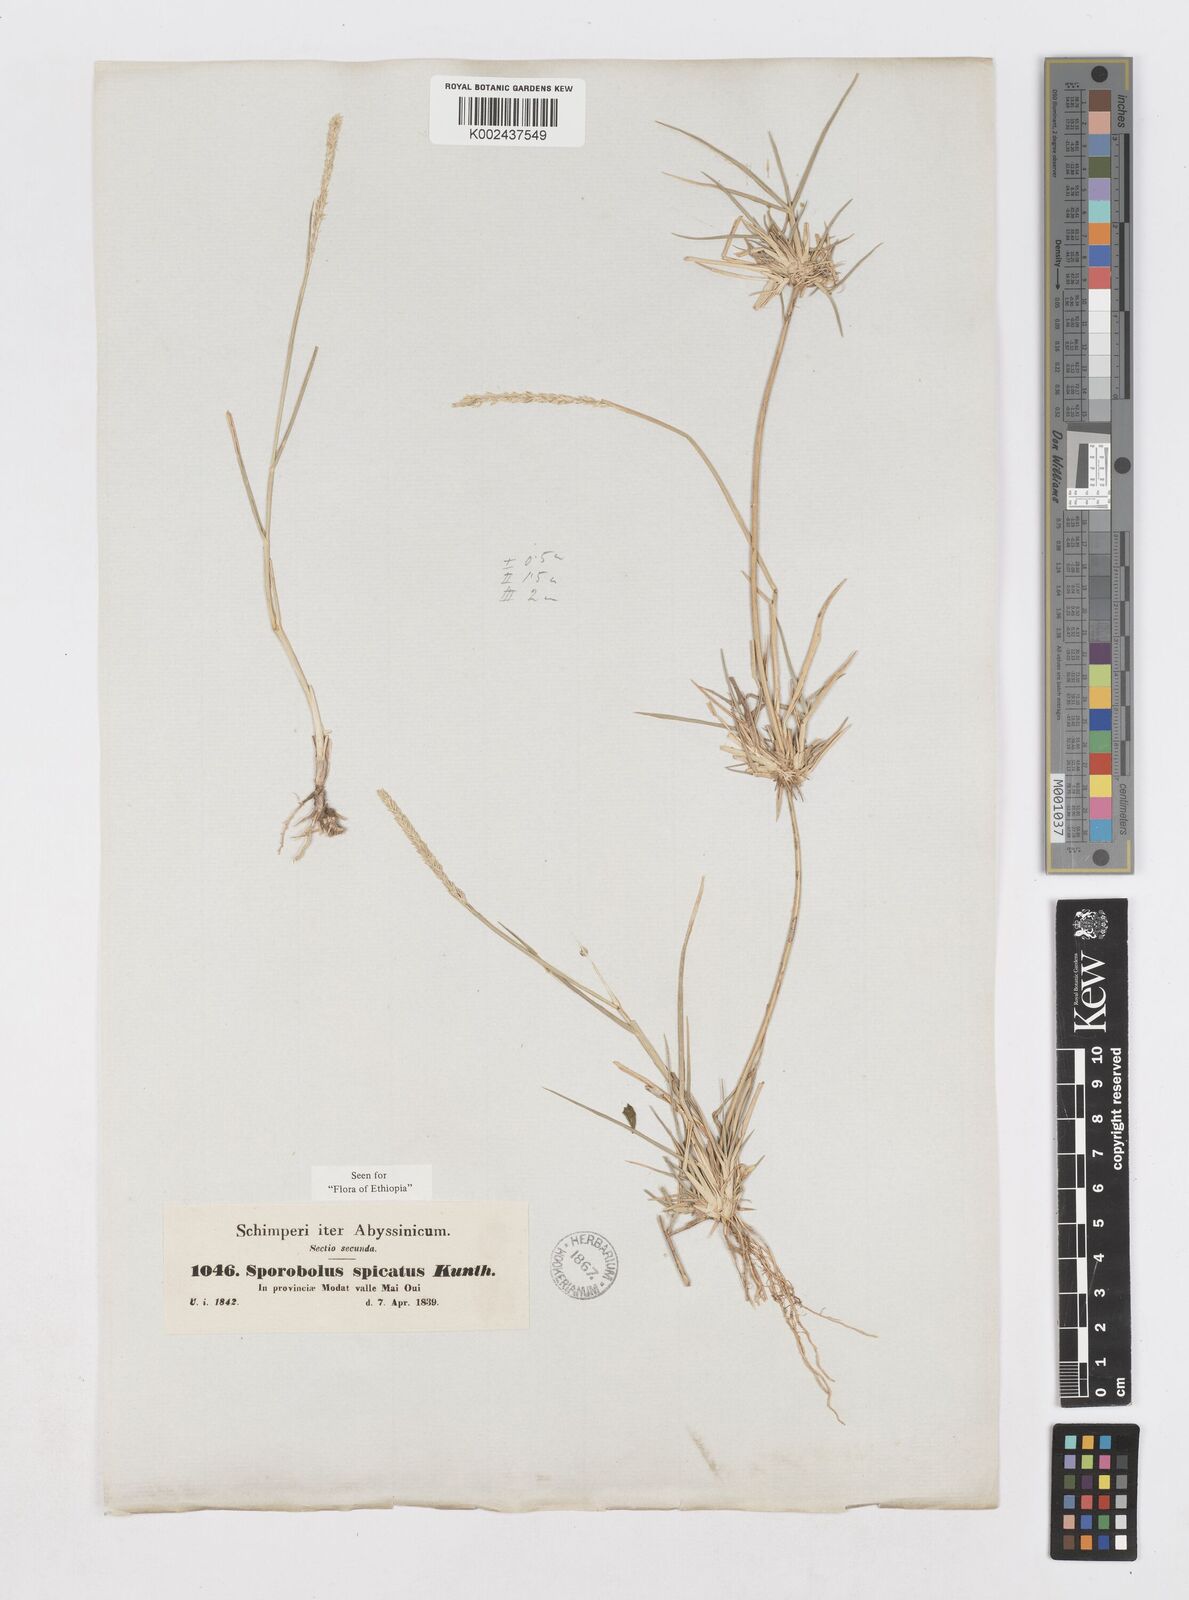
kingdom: Plantae
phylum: Tracheophyta
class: Liliopsida
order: Poales
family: Poaceae
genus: Sporobolus
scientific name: Sporobolus spicatus
